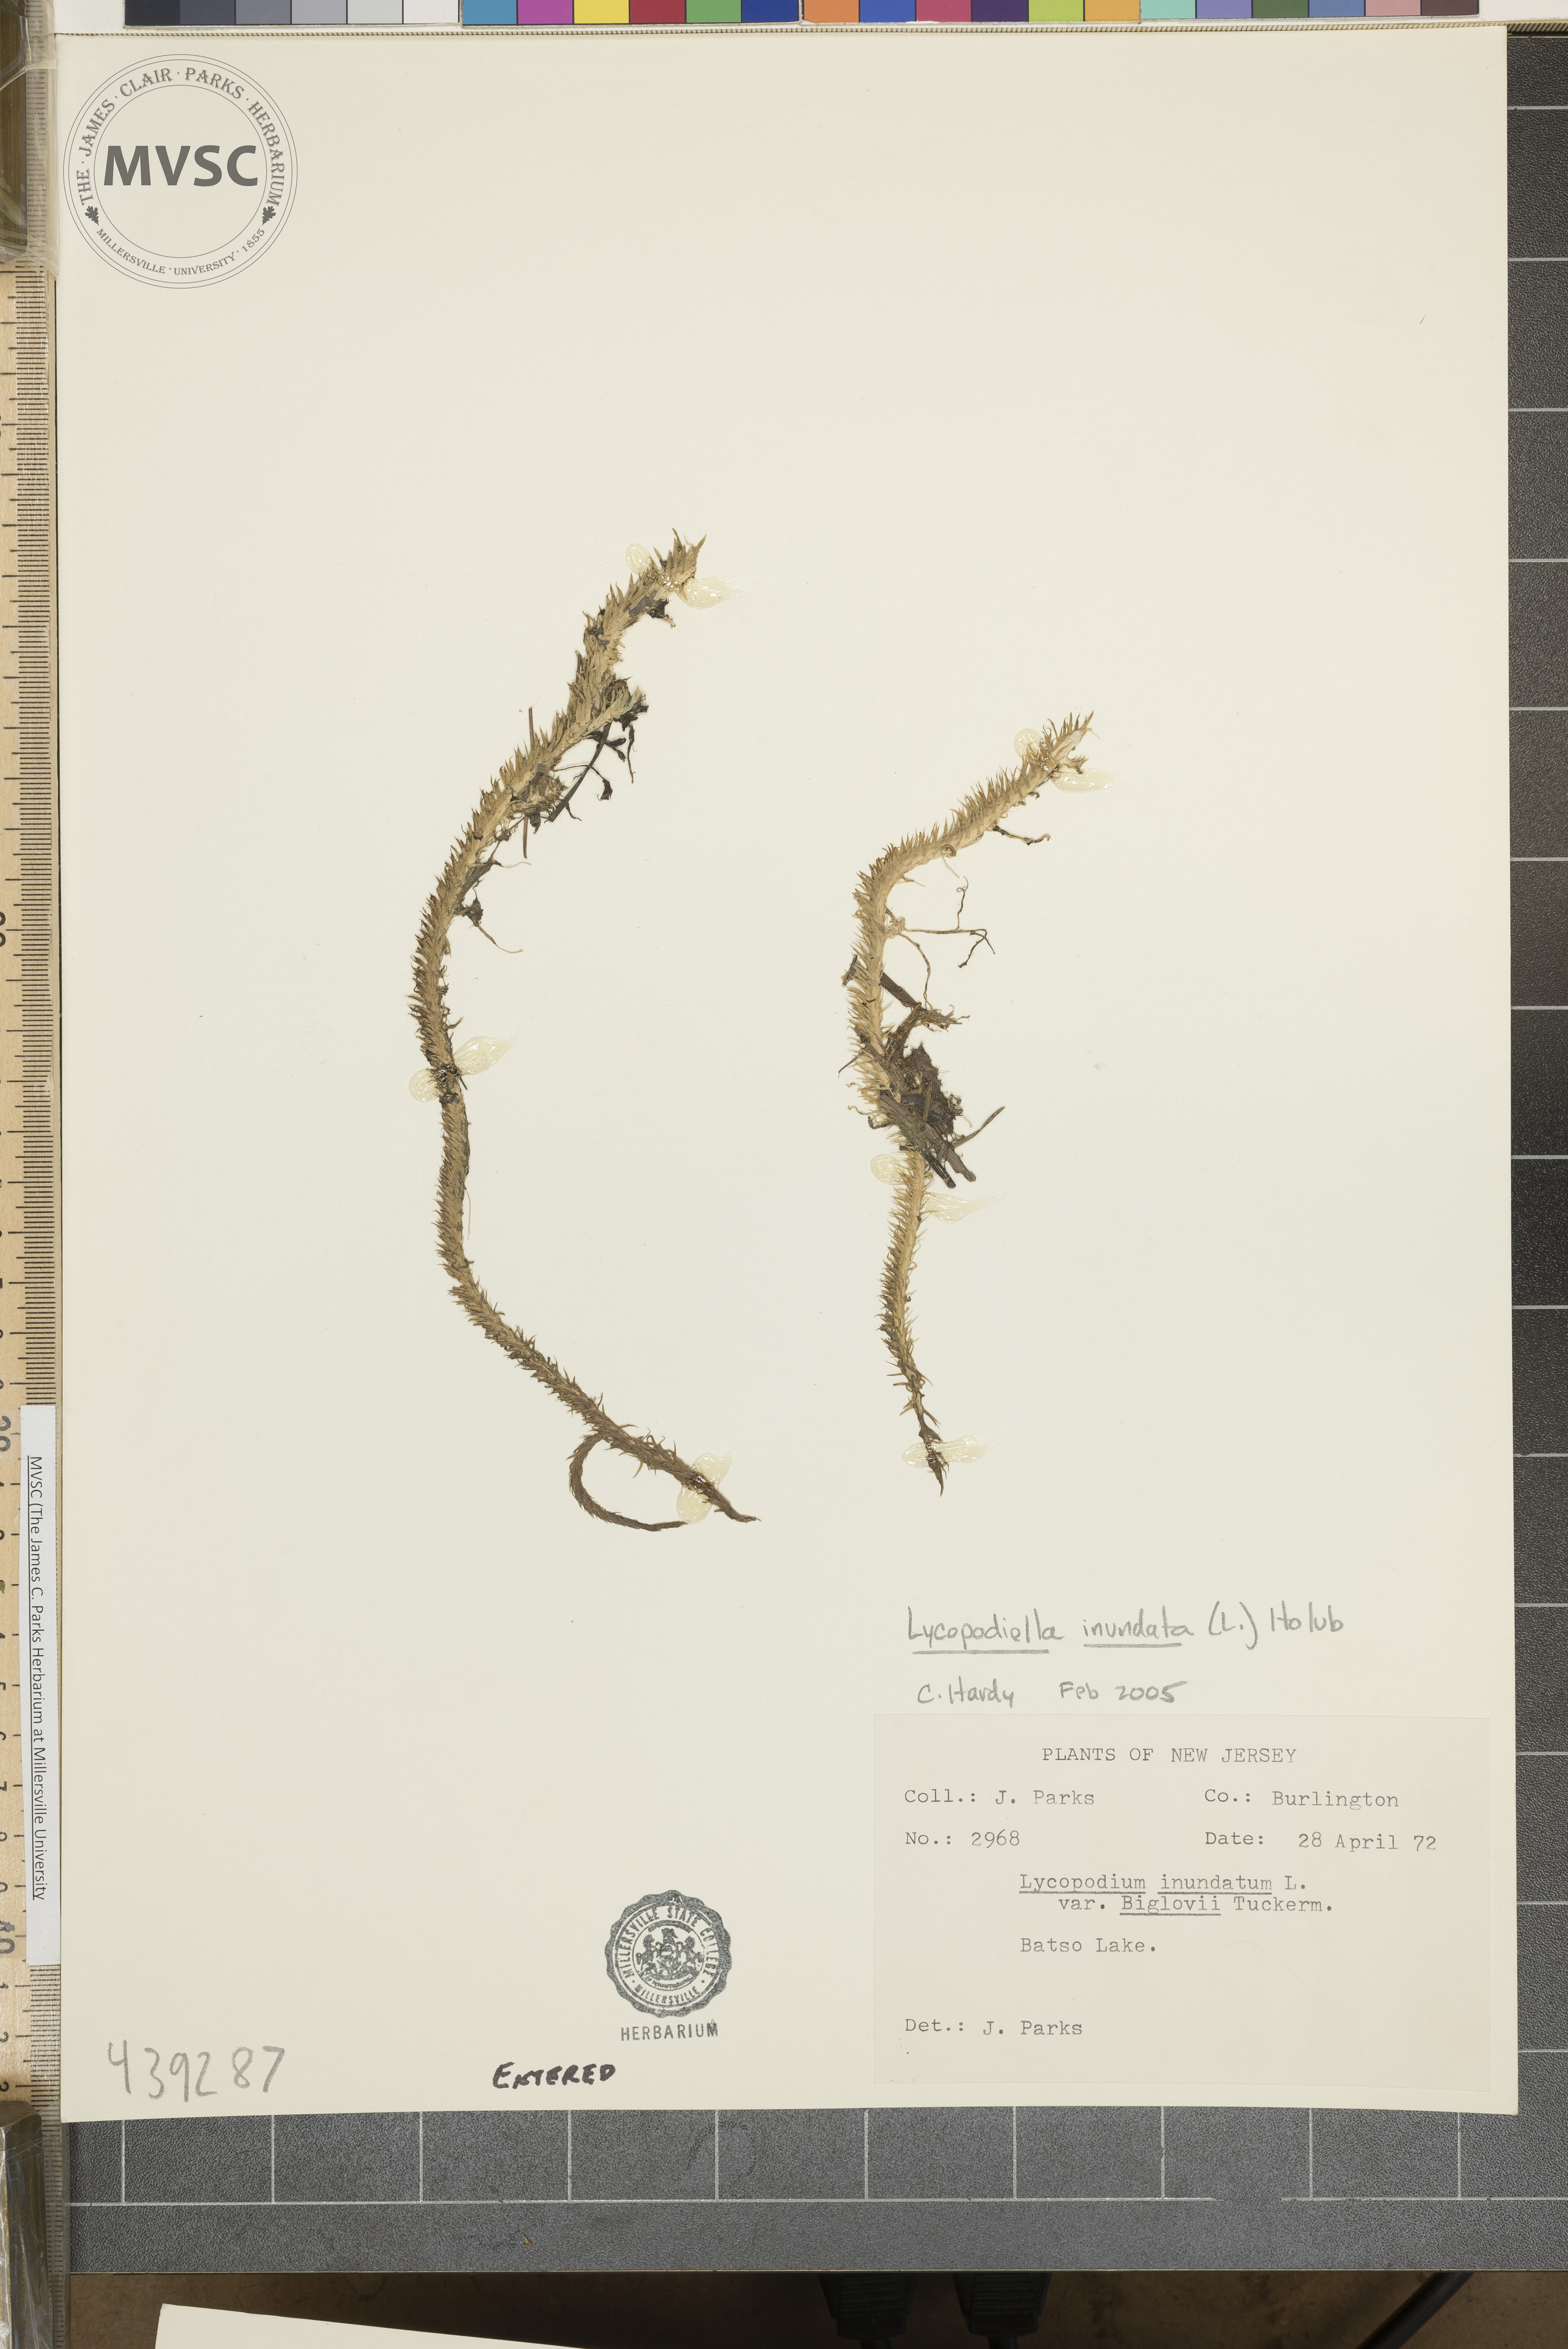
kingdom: Plantae
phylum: Tracheophyta
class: Lycopodiopsida
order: Lycopodiales
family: Lycopodiaceae
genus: Lycopodiella
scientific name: Lycopodiella inundata
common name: Marsh clubmoss
